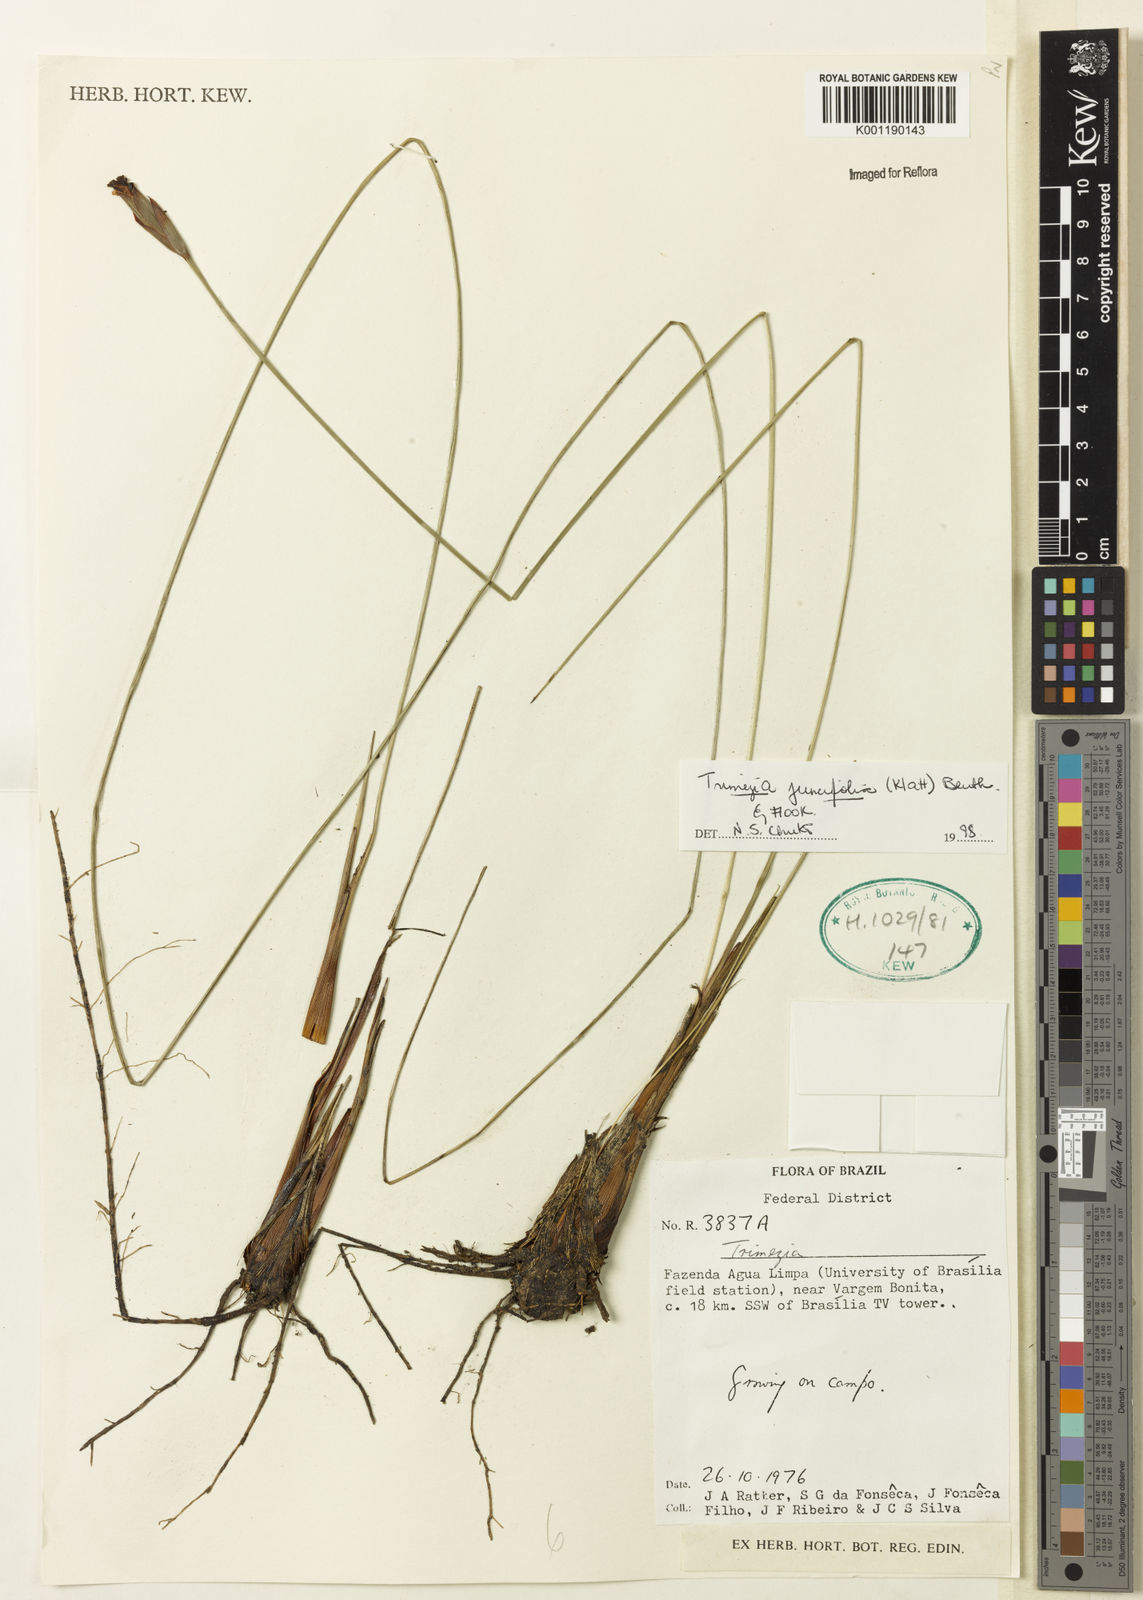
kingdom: Plantae
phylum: Tracheophyta
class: Liliopsida
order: Asparagales
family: Iridaceae
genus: Trimezia
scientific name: Trimezia juncifolia
